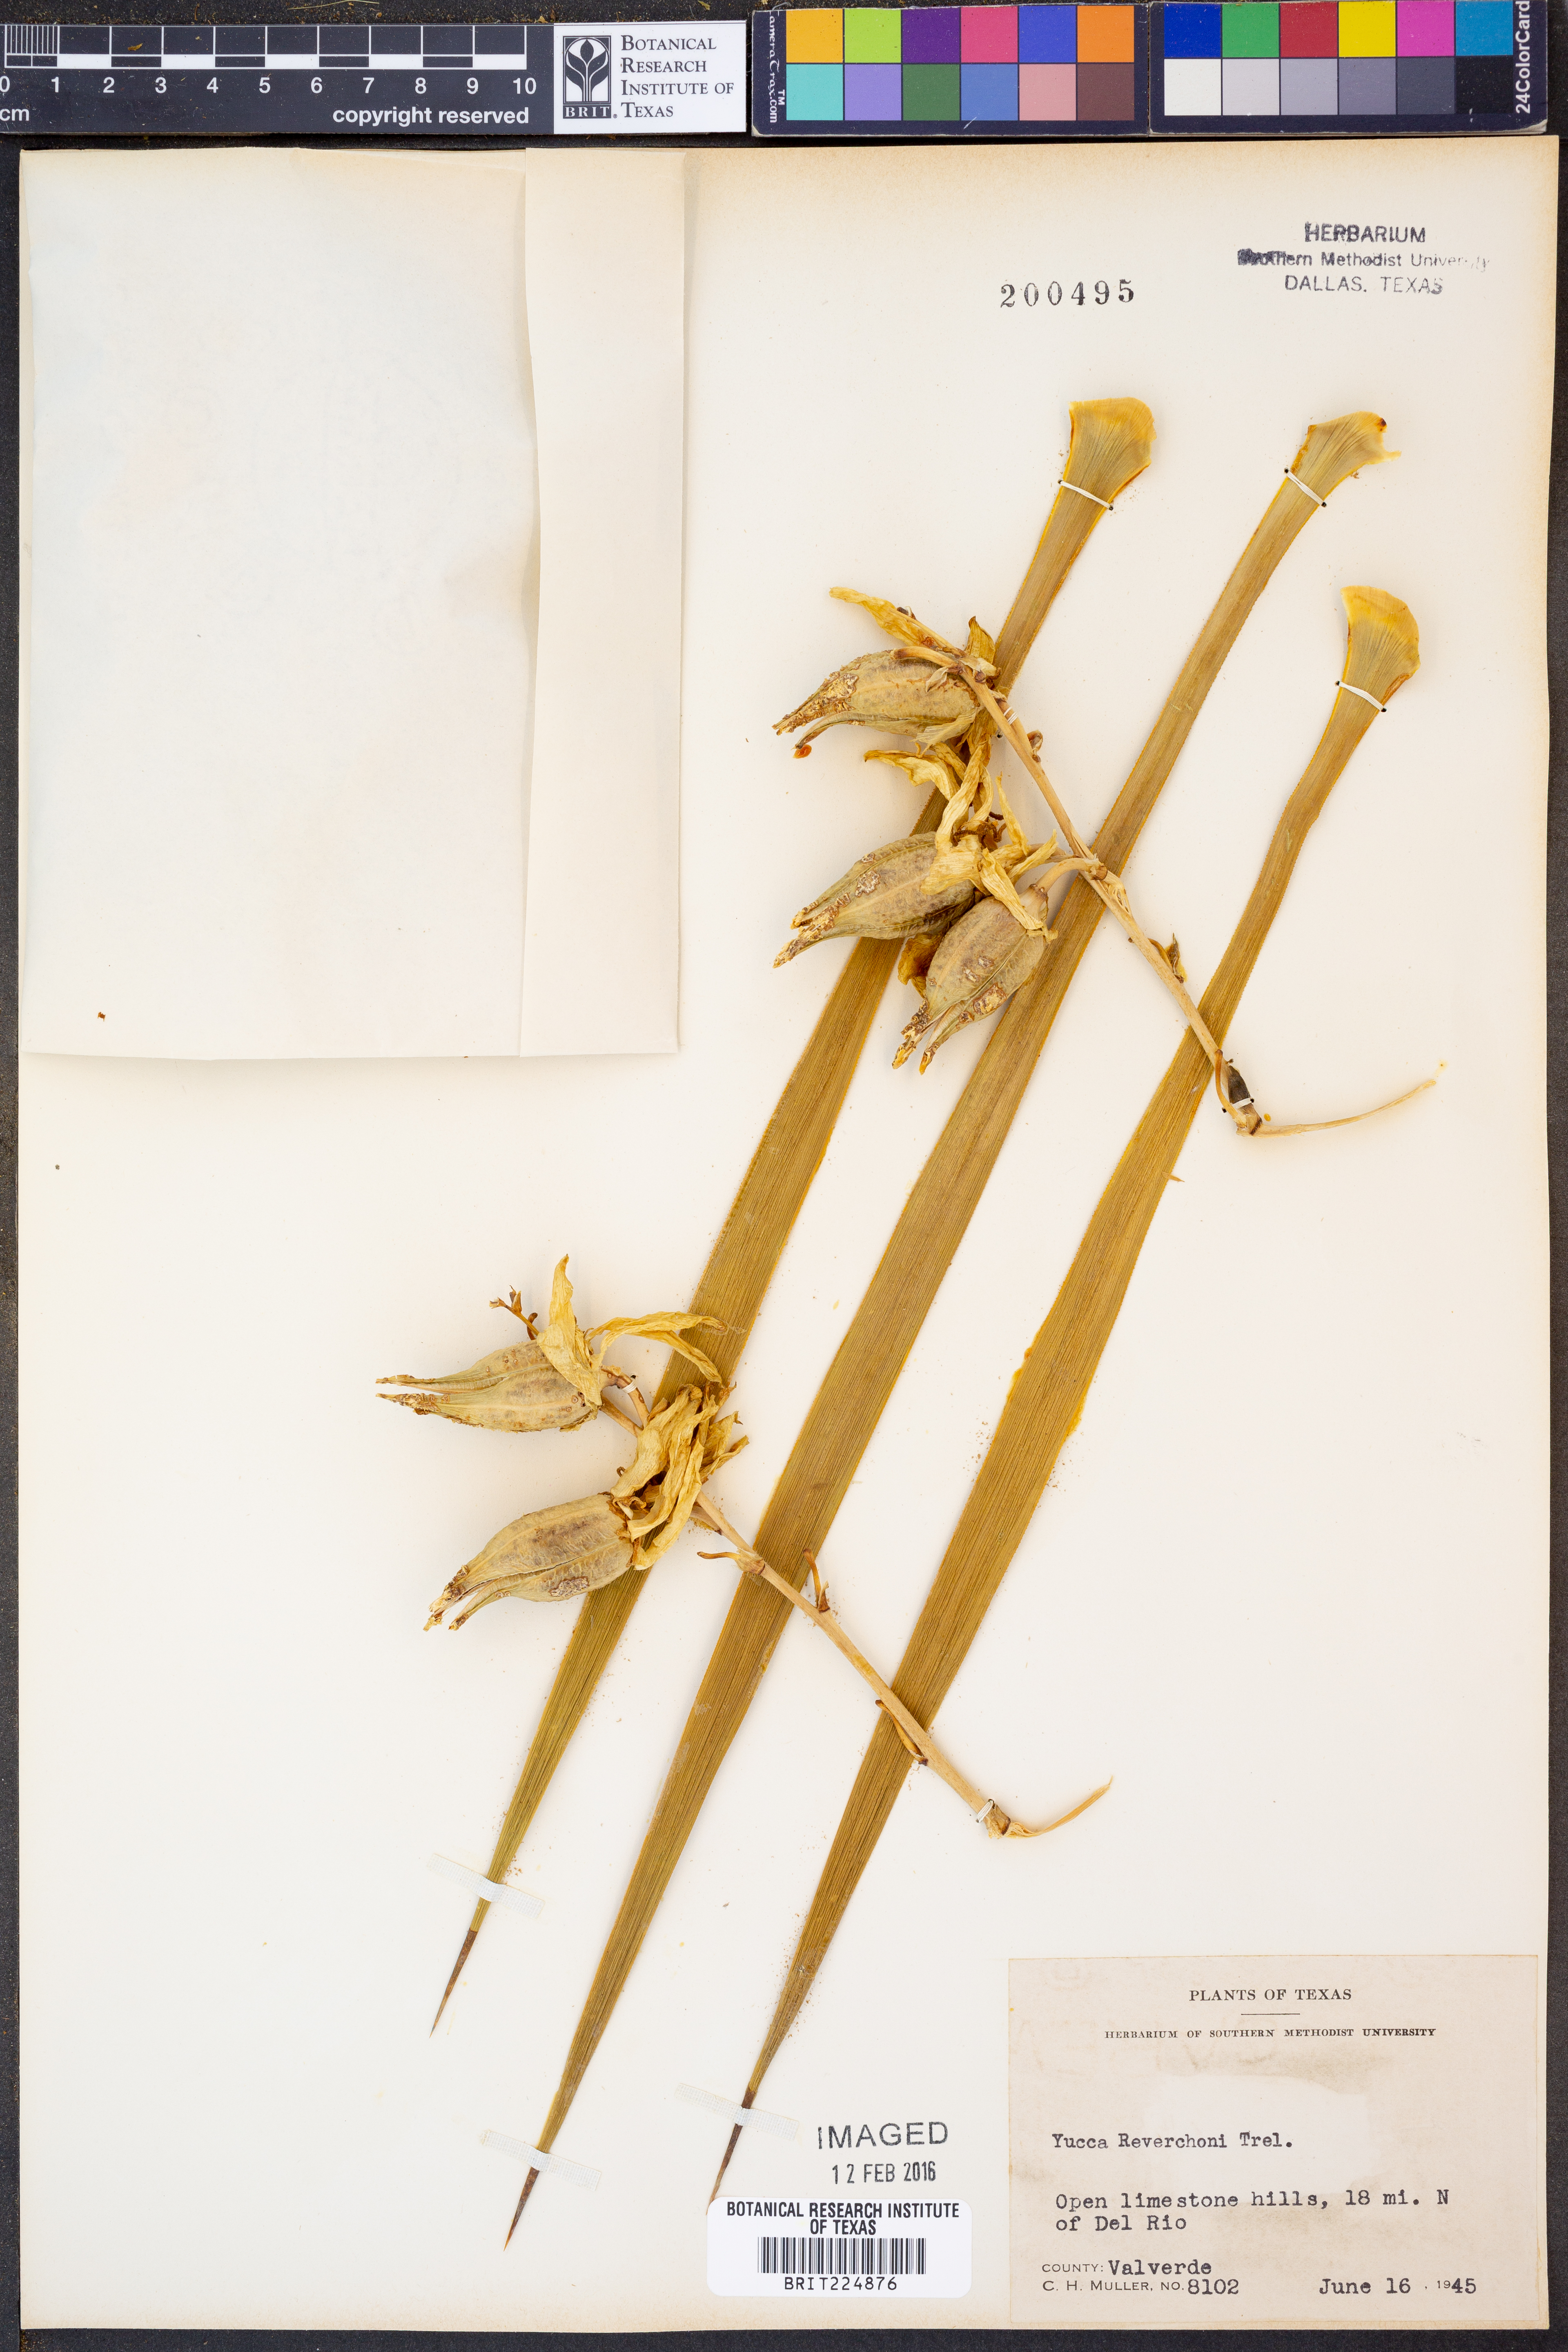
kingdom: Plantae
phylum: Tracheophyta
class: Liliopsida
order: Asparagales
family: Asparagaceae
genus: Yucca
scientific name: Yucca reverchonii
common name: San angelo yucca
